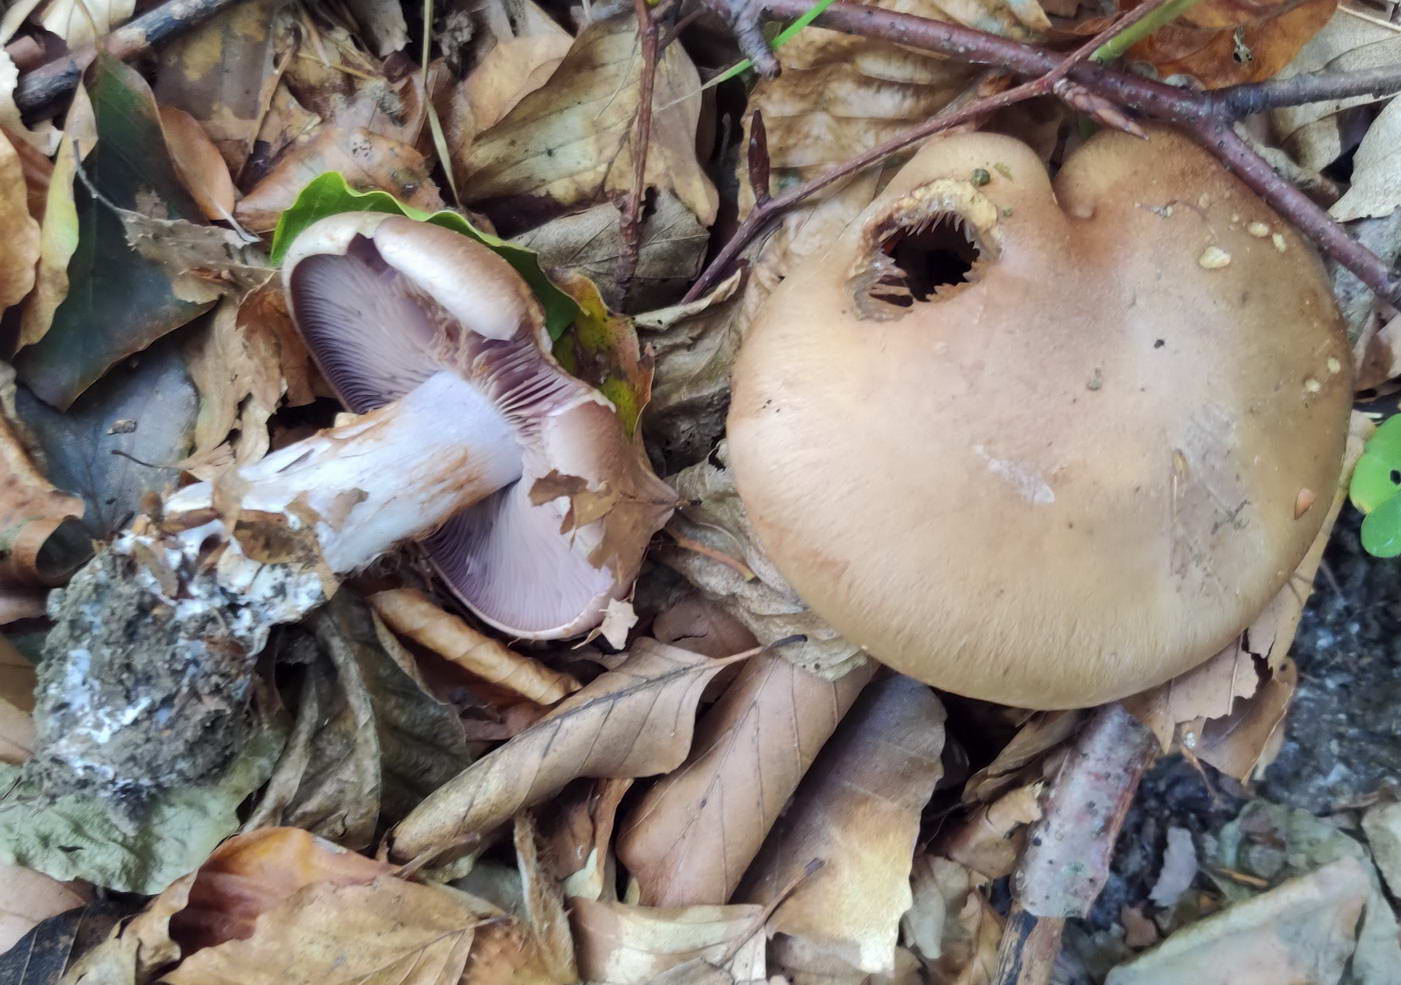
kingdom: Fungi
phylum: Basidiomycota
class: Agaricomycetes
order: Agaricales
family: Cortinariaceae
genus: Cortinarius
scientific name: Cortinarius largus
